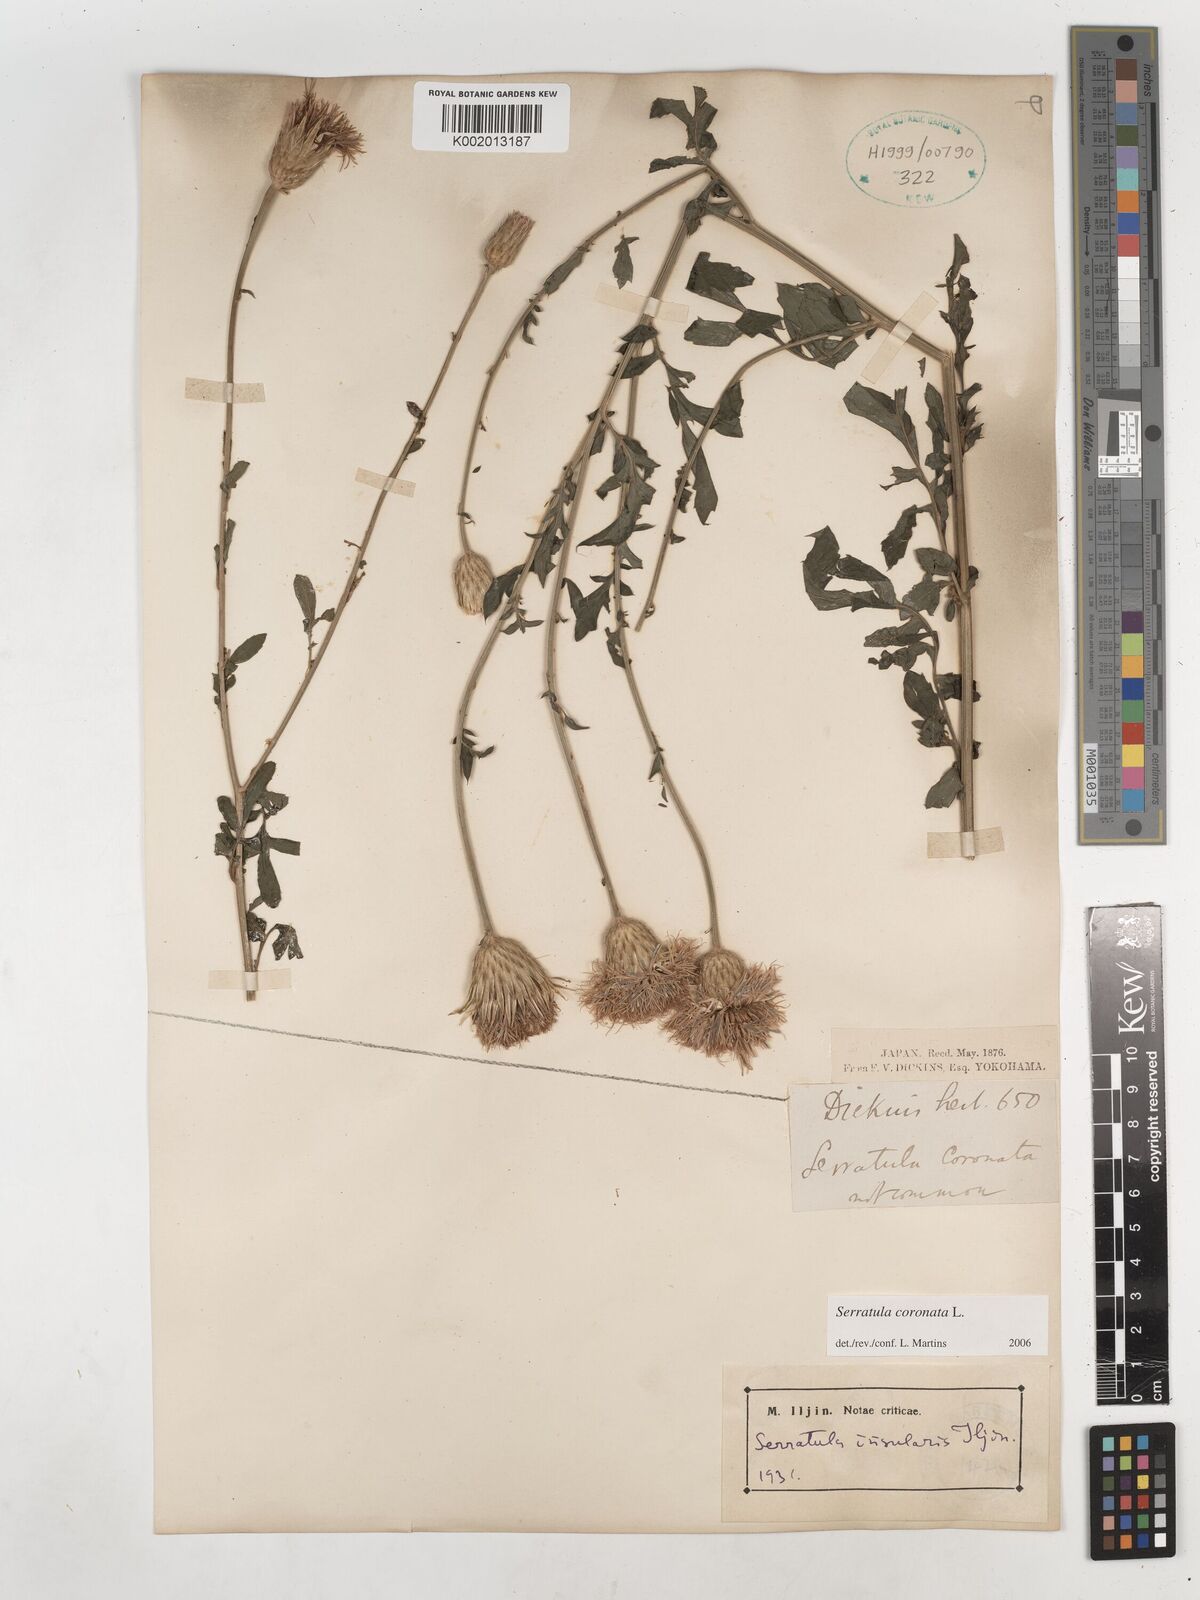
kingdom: Plantae
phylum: Tracheophyta
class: Magnoliopsida
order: Asterales
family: Asteraceae
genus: Serratula
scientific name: Serratula coronata
